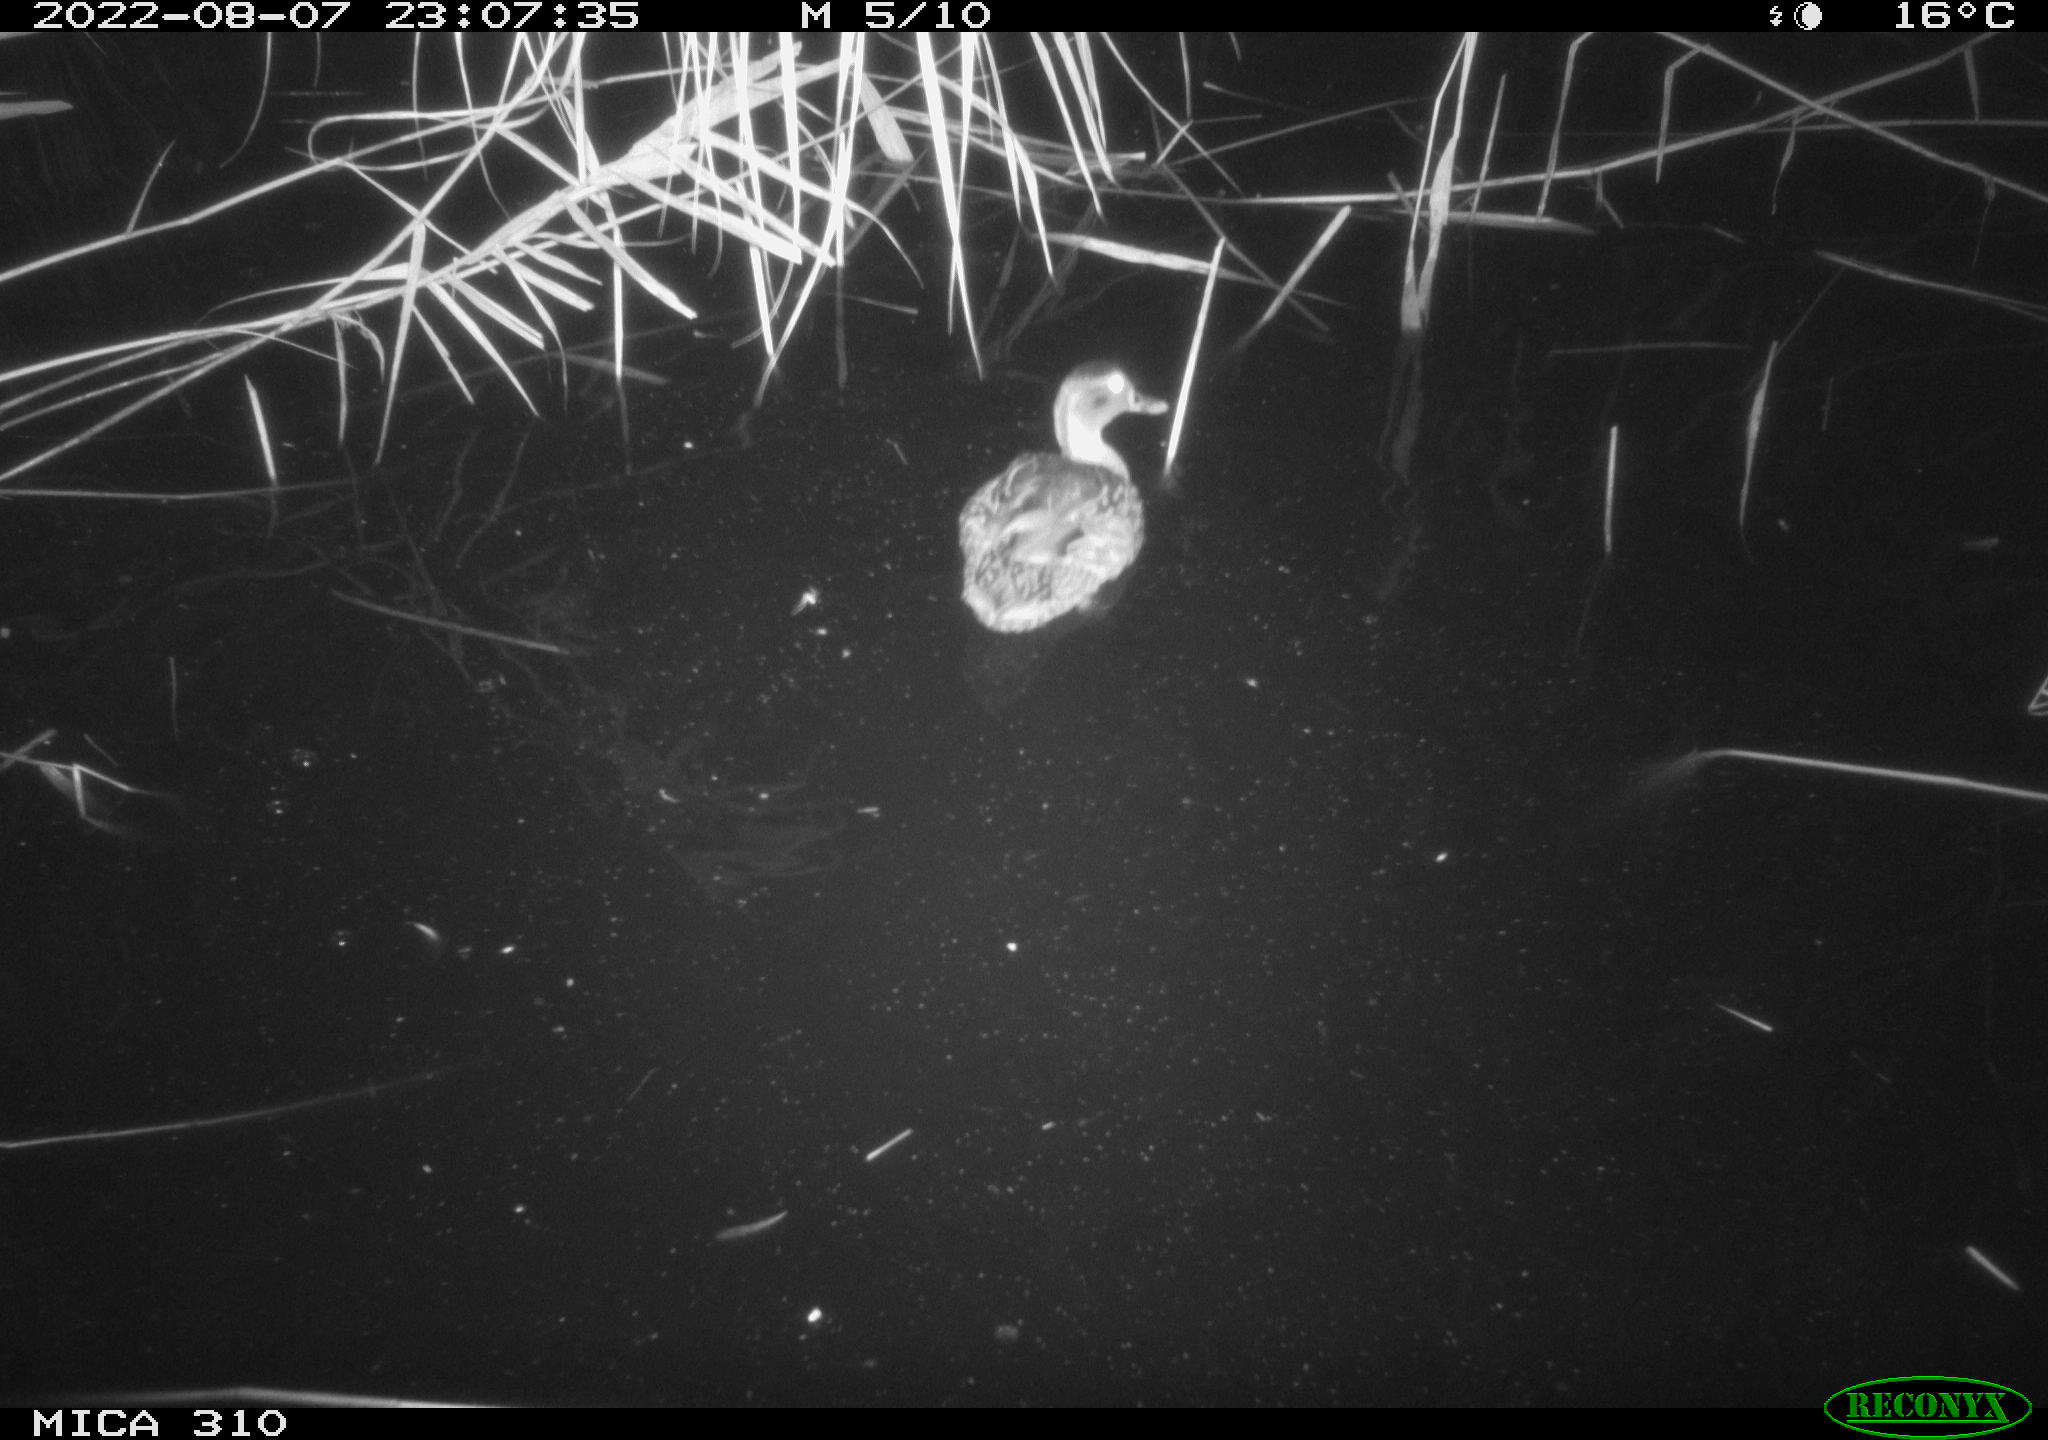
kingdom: Animalia
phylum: Chordata
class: Aves
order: Gruiformes
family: Rallidae
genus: Fulica
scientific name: Fulica atra
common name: Eurasian coot
